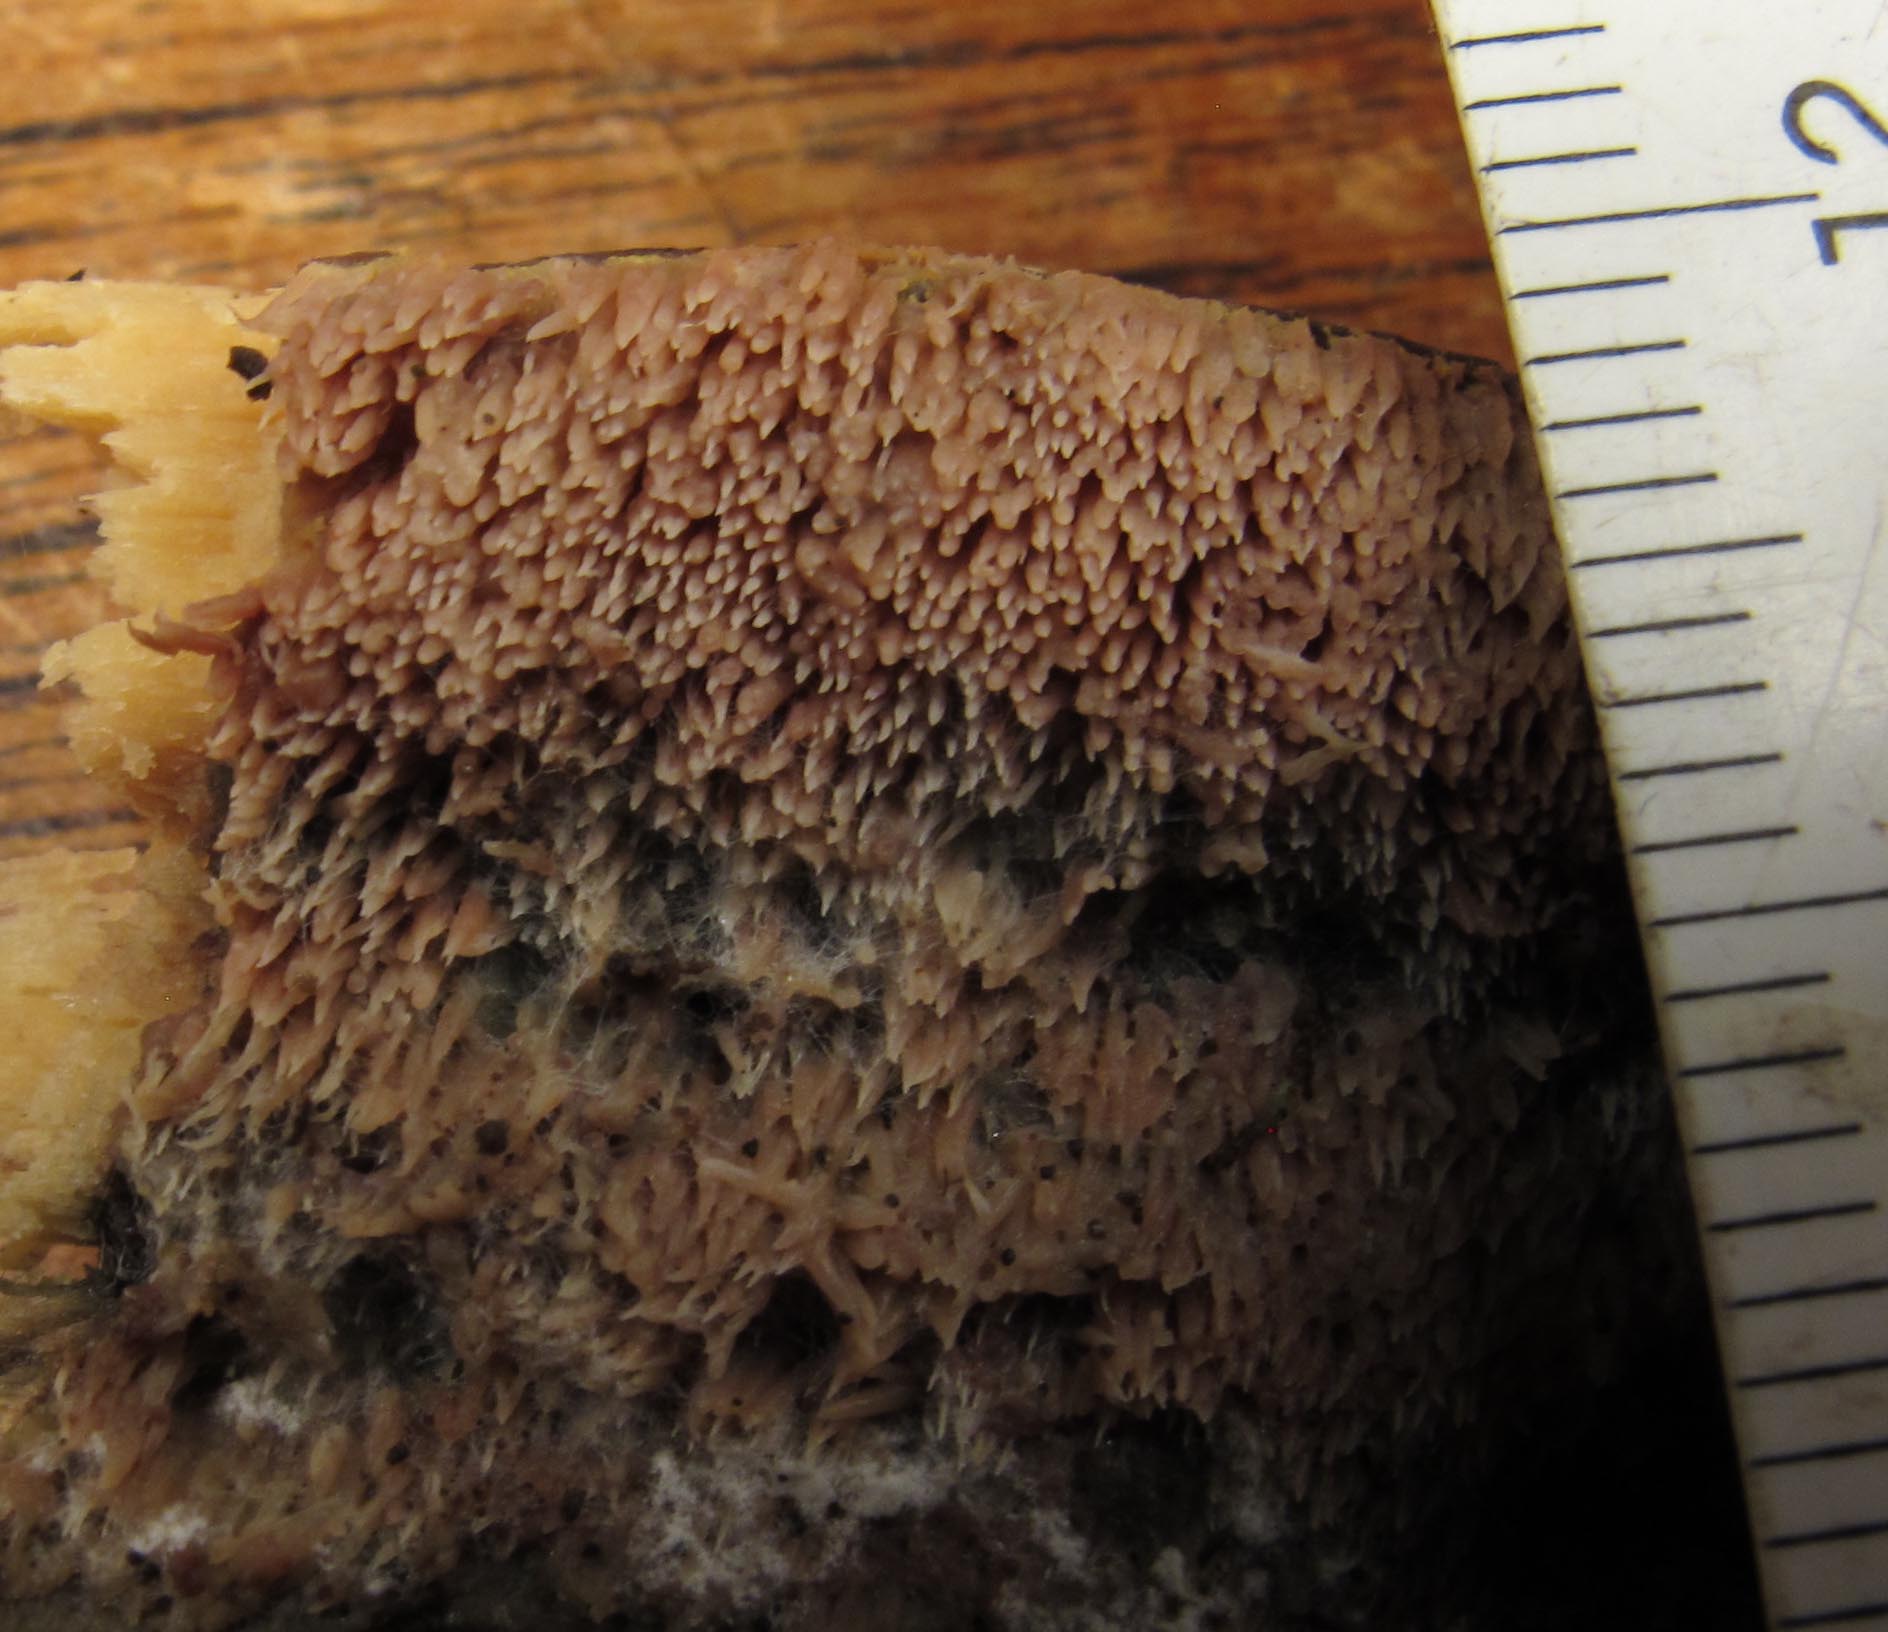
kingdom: Fungi
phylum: Basidiomycota
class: Agaricomycetes
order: Polyporales
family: Meruliaceae
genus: Mycoacia
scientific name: Mycoacia fuscoatra
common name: mørk vokspig
